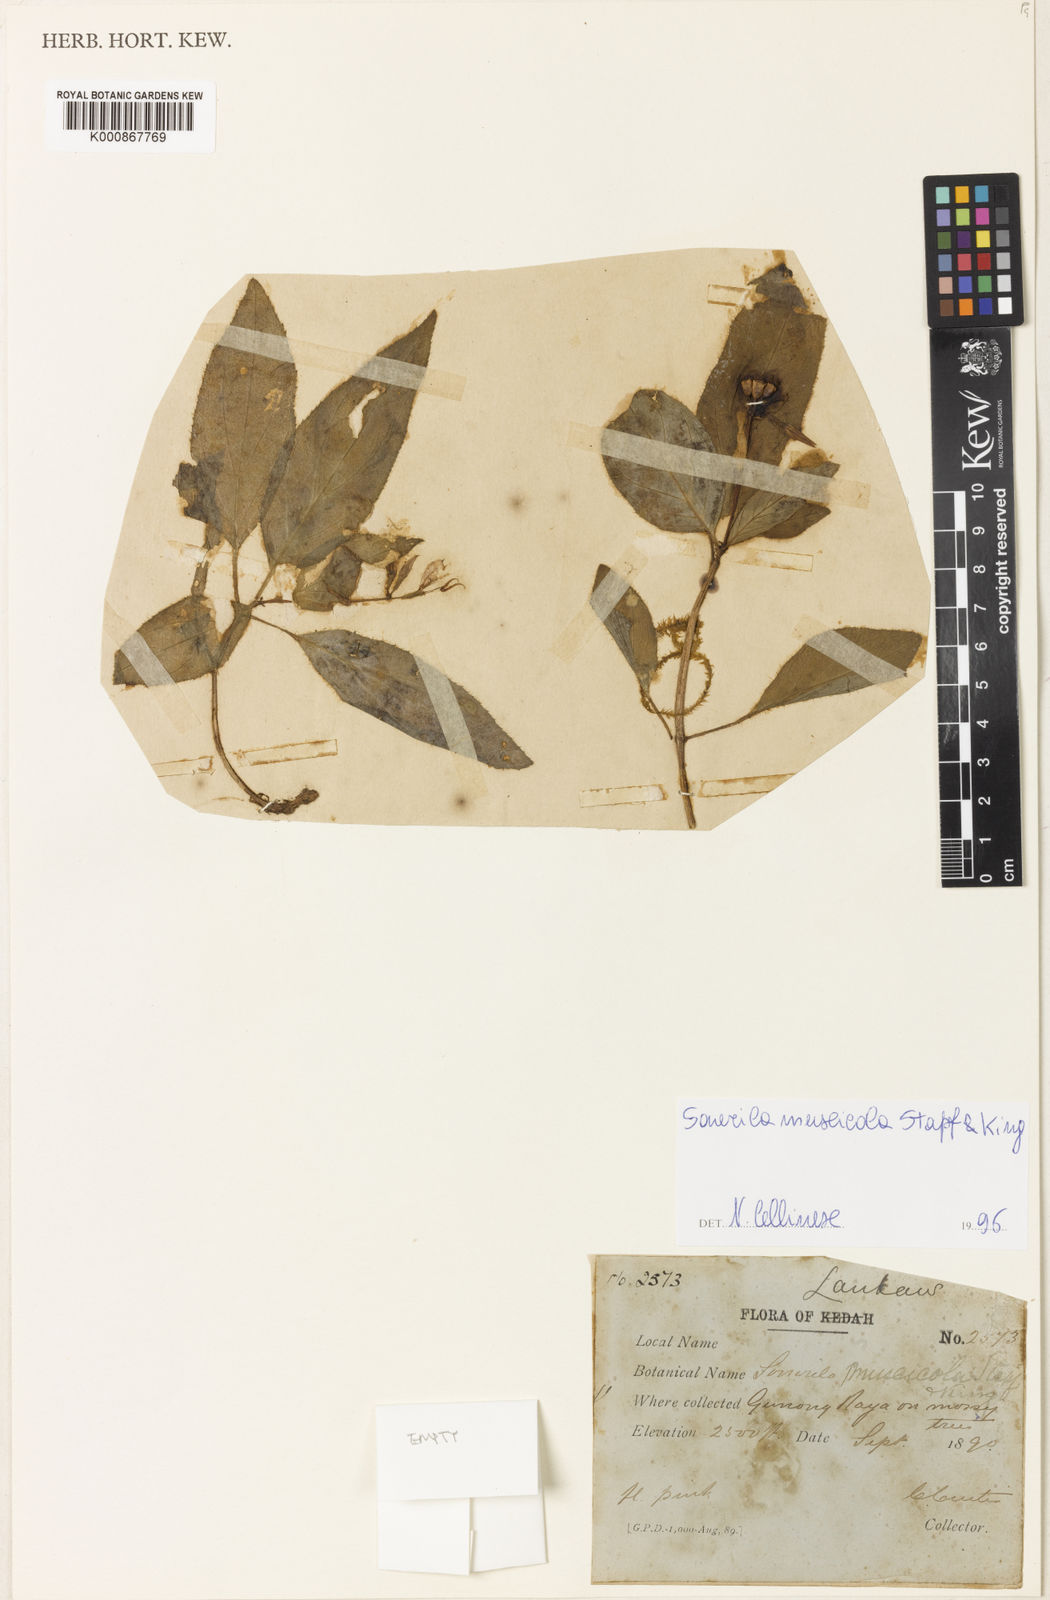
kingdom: Plantae
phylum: Tracheophyta
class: Magnoliopsida
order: Myrtales
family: Melastomataceae
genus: Sonerila
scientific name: Sonerila griffithii
